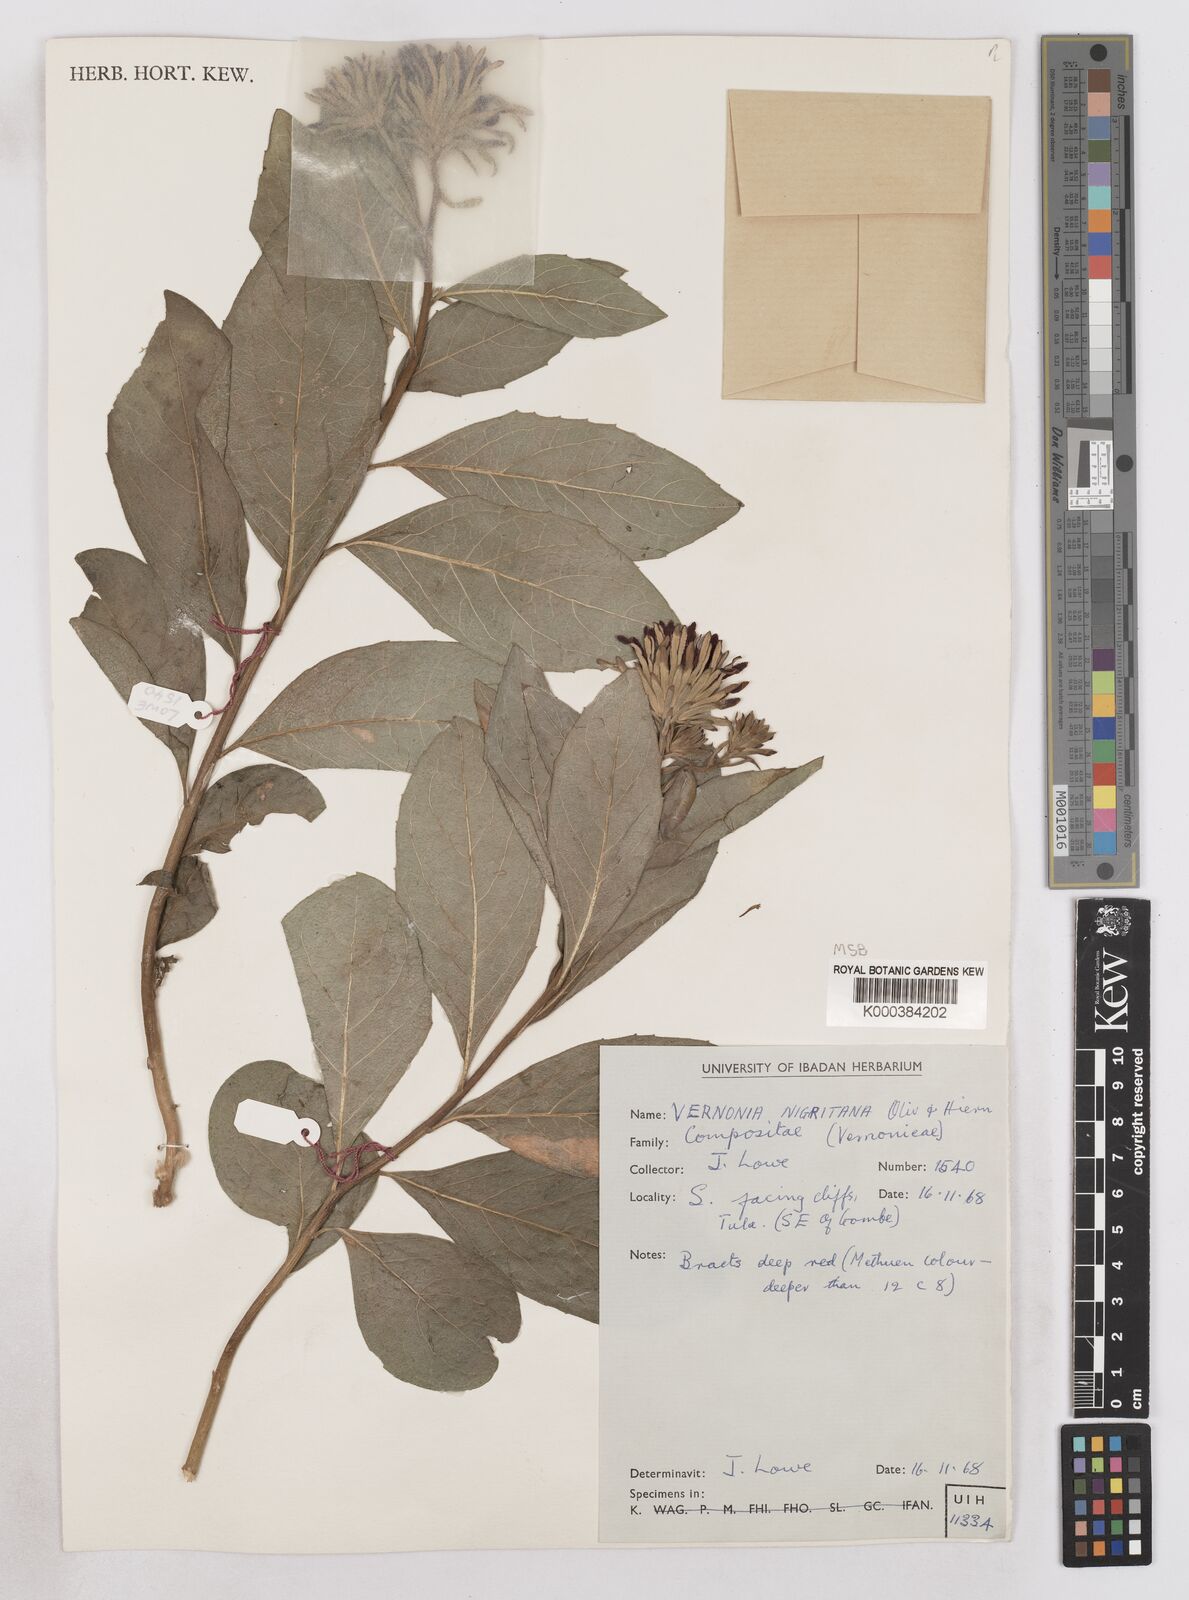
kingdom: Plantae
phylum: Tracheophyta
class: Magnoliopsida
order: Asterales
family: Asteraceae
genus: Linzia
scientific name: Linzia nigritiana
